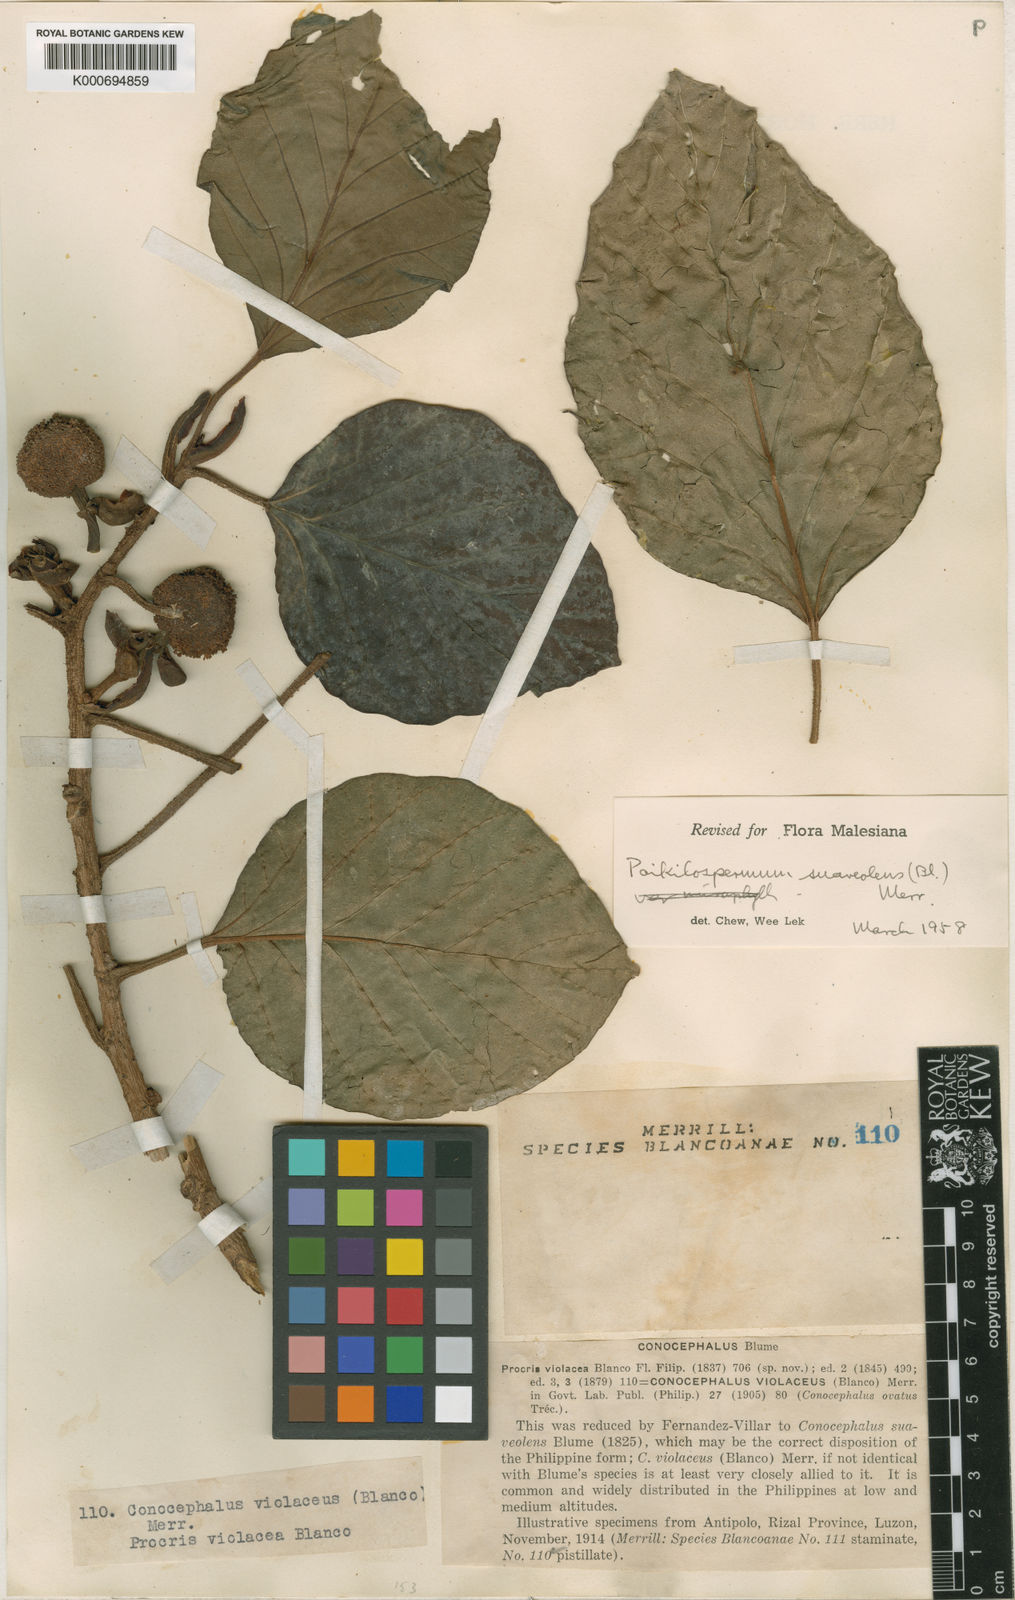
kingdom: Plantae
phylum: Tracheophyta
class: Magnoliopsida
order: Rosales
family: Urticaceae
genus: Poikilospermum
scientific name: Poikilospermum suaveolens
